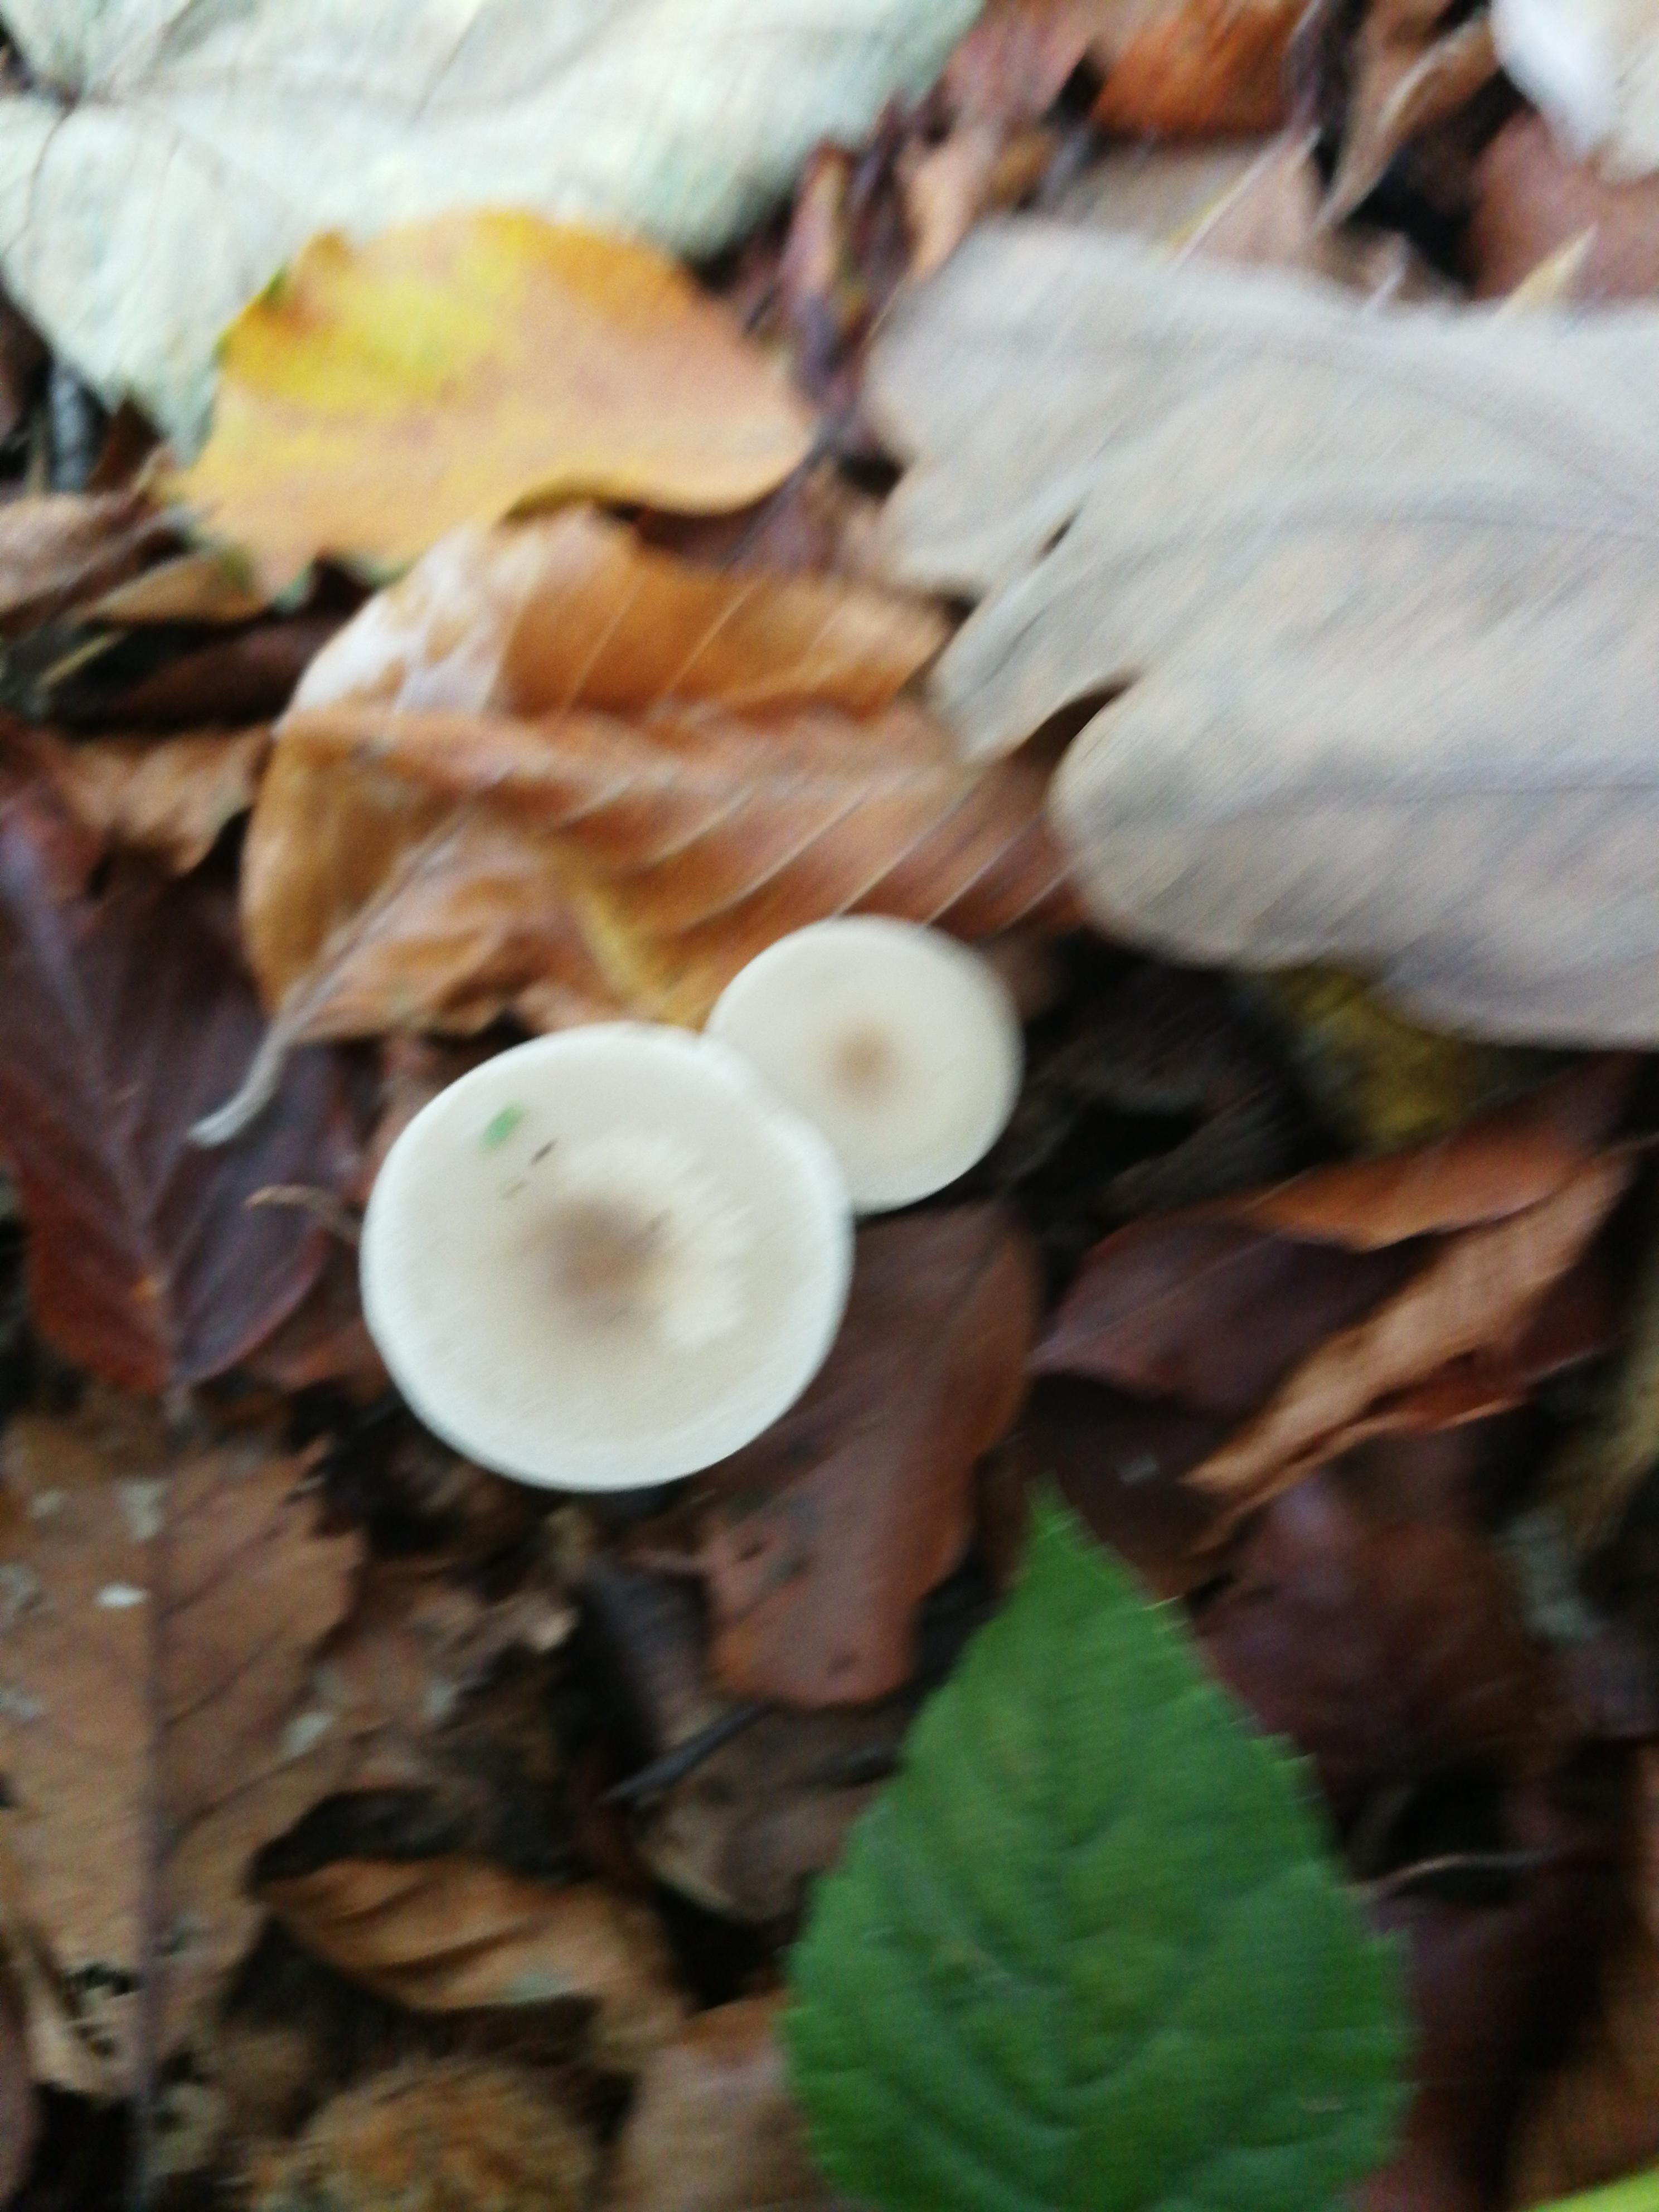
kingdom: Fungi
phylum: Basidiomycota
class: Agaricomycetes
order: Agaricales
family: Tricholomataceae
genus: Clitocybe
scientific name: Clitocybe
